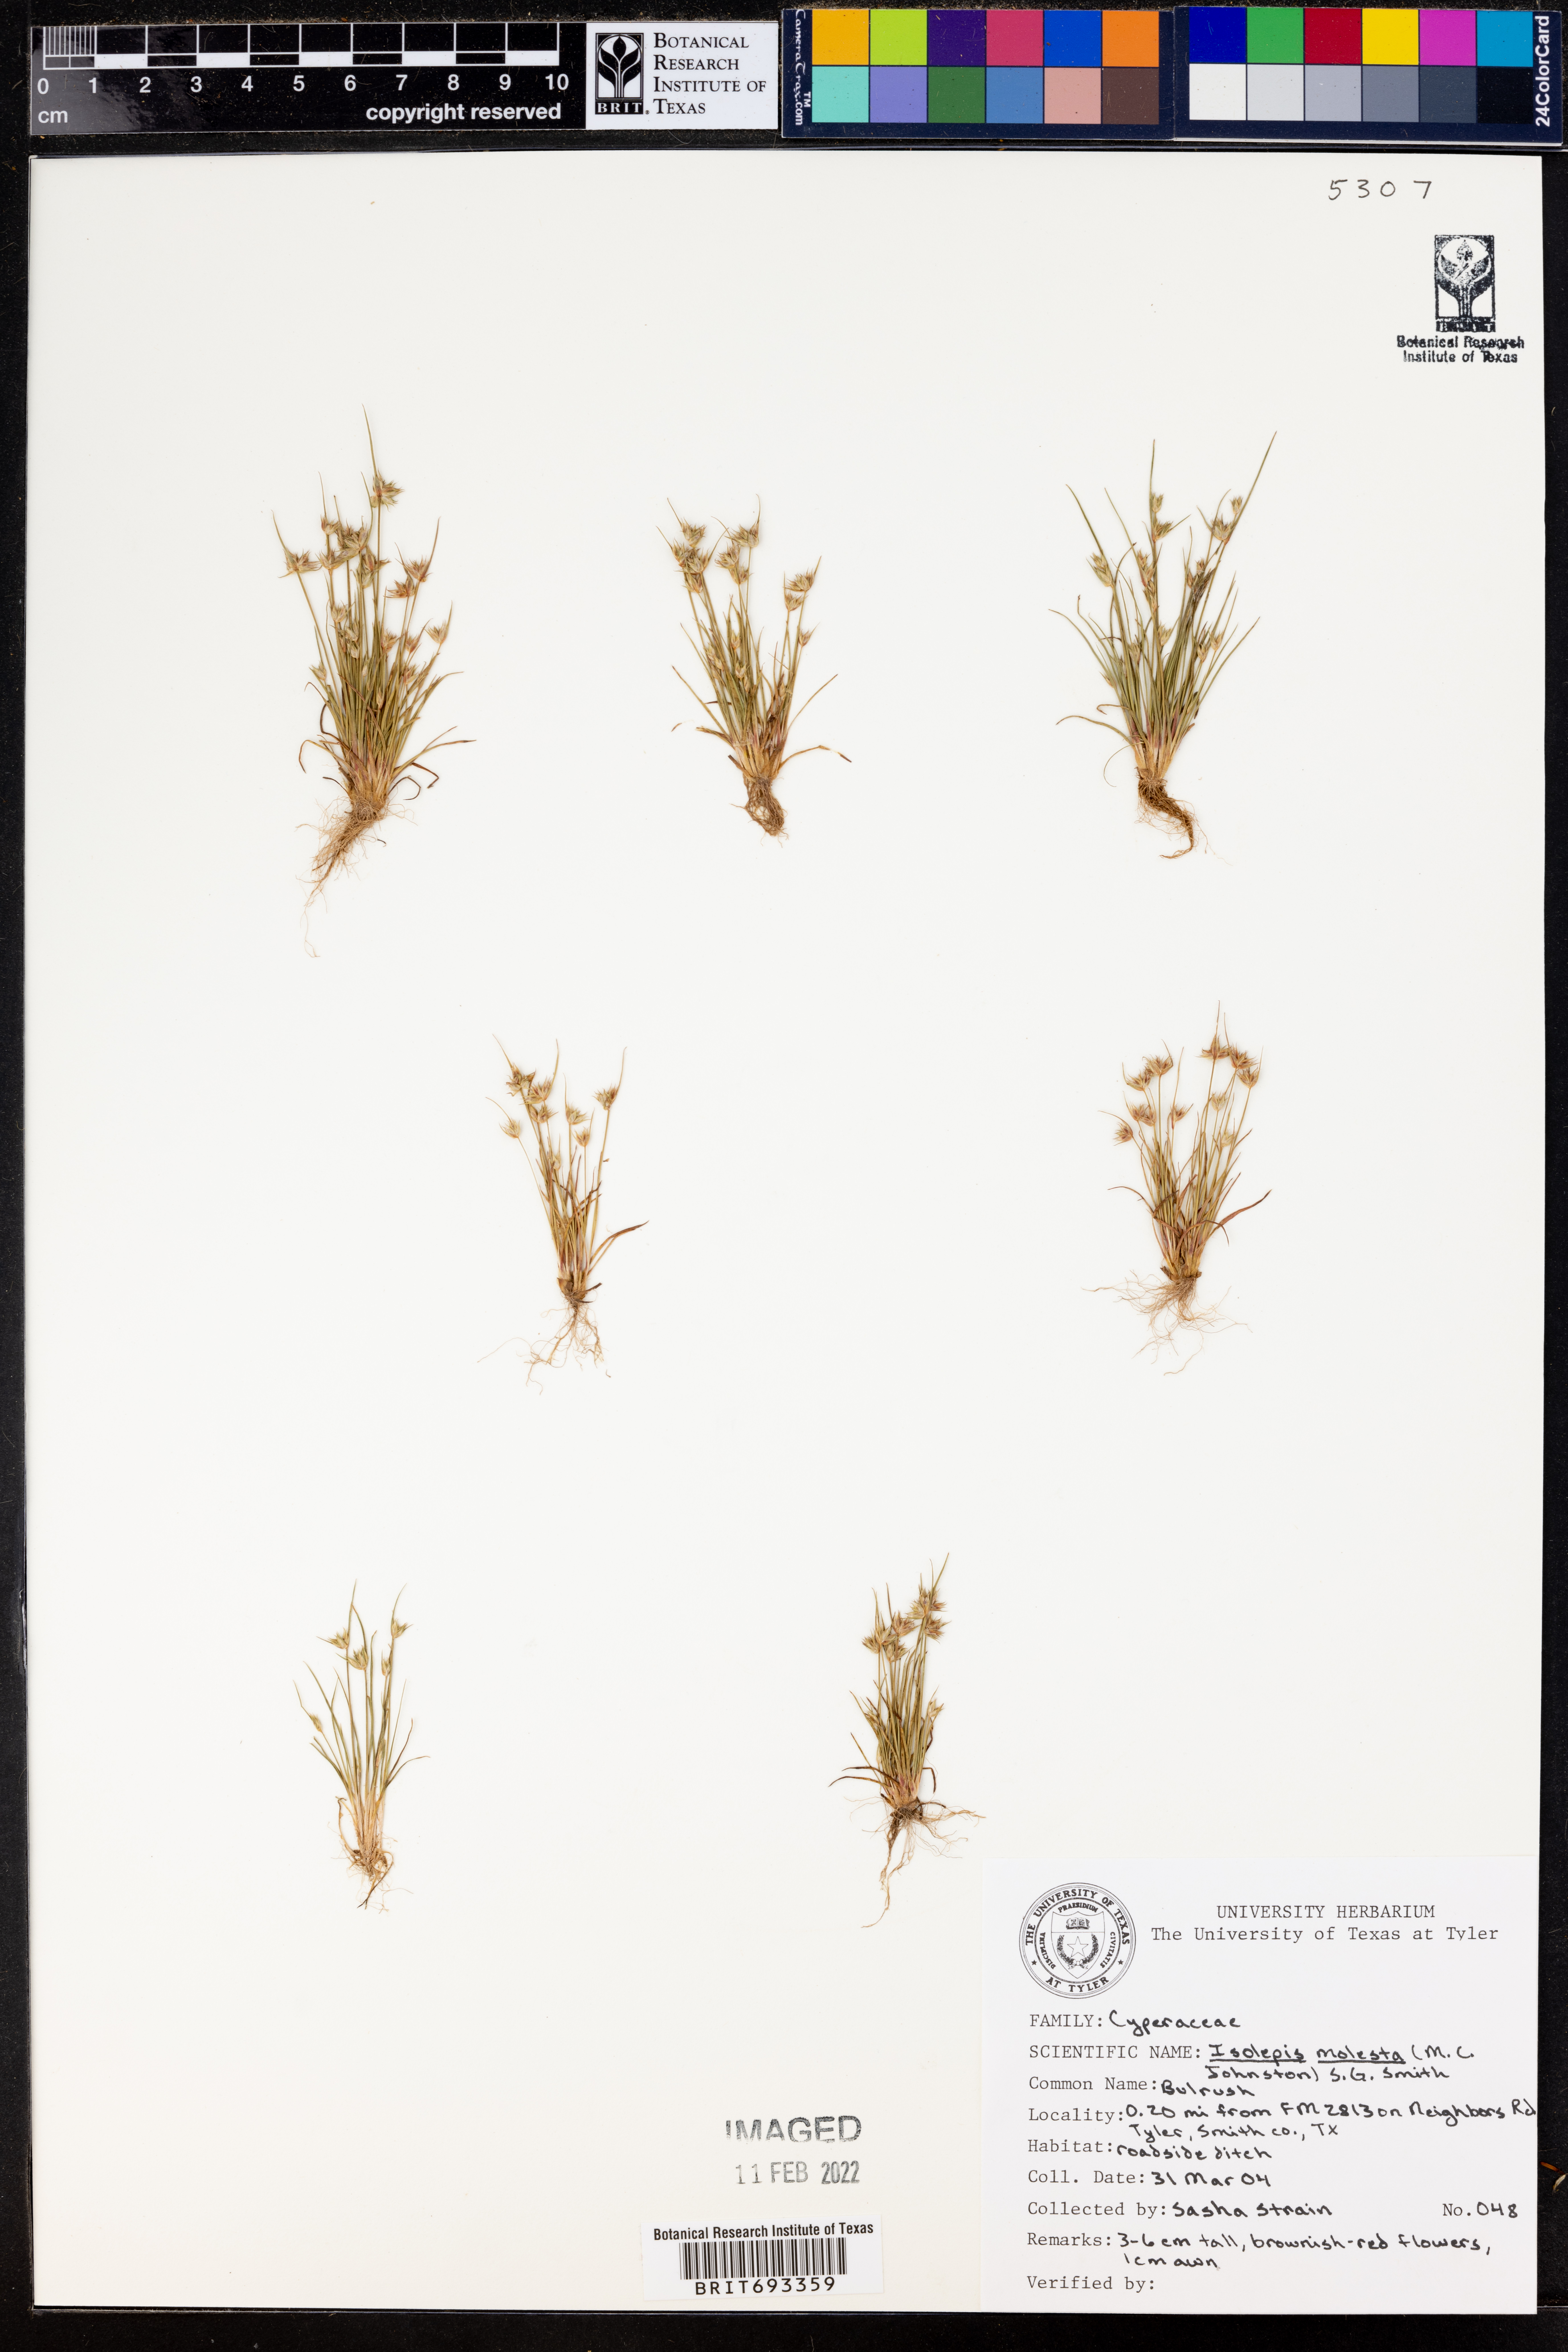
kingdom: Plantae
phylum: Tracheophyta
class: Liliopsida
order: Poales
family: Cyperaceae
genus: Isolepis
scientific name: Isolepis pseudosetacea
